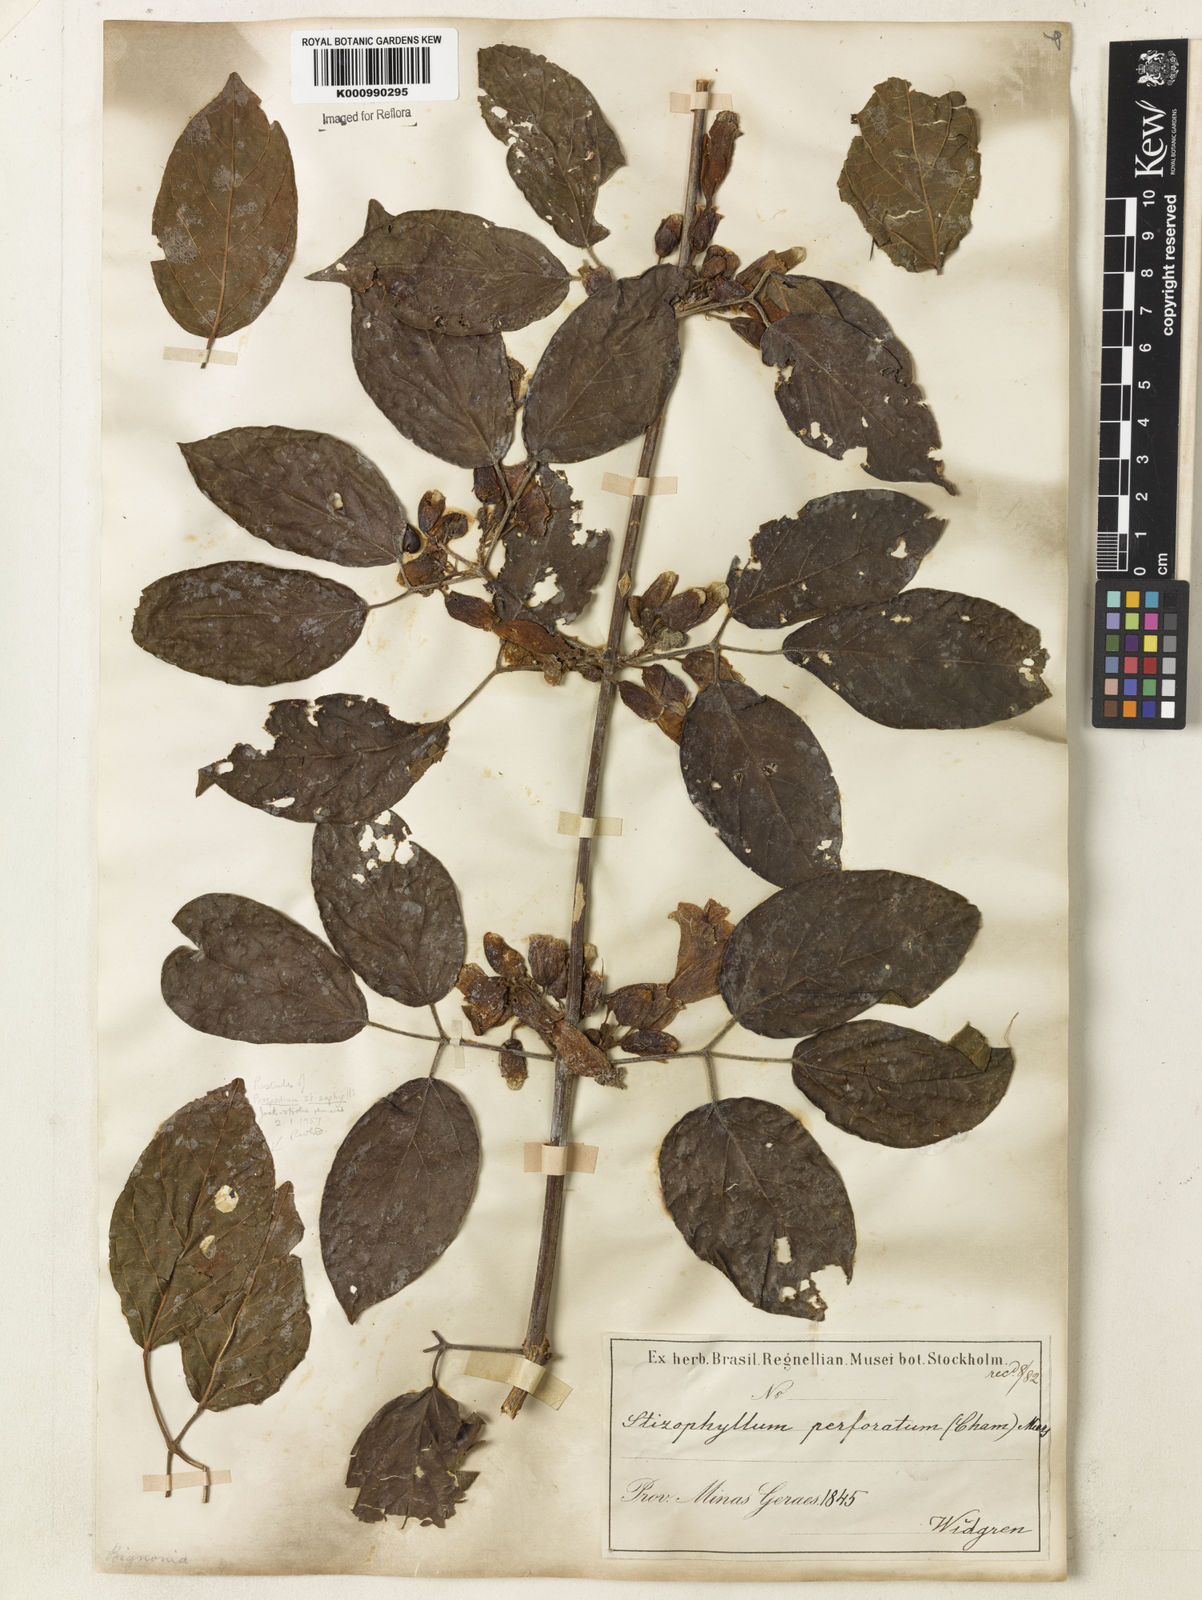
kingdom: Plantae
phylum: Tracheophyta
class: Magnoliopsida
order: Lamiales
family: Bignoniaceae
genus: Stizophyllum
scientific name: Stizophyllum perforatum
